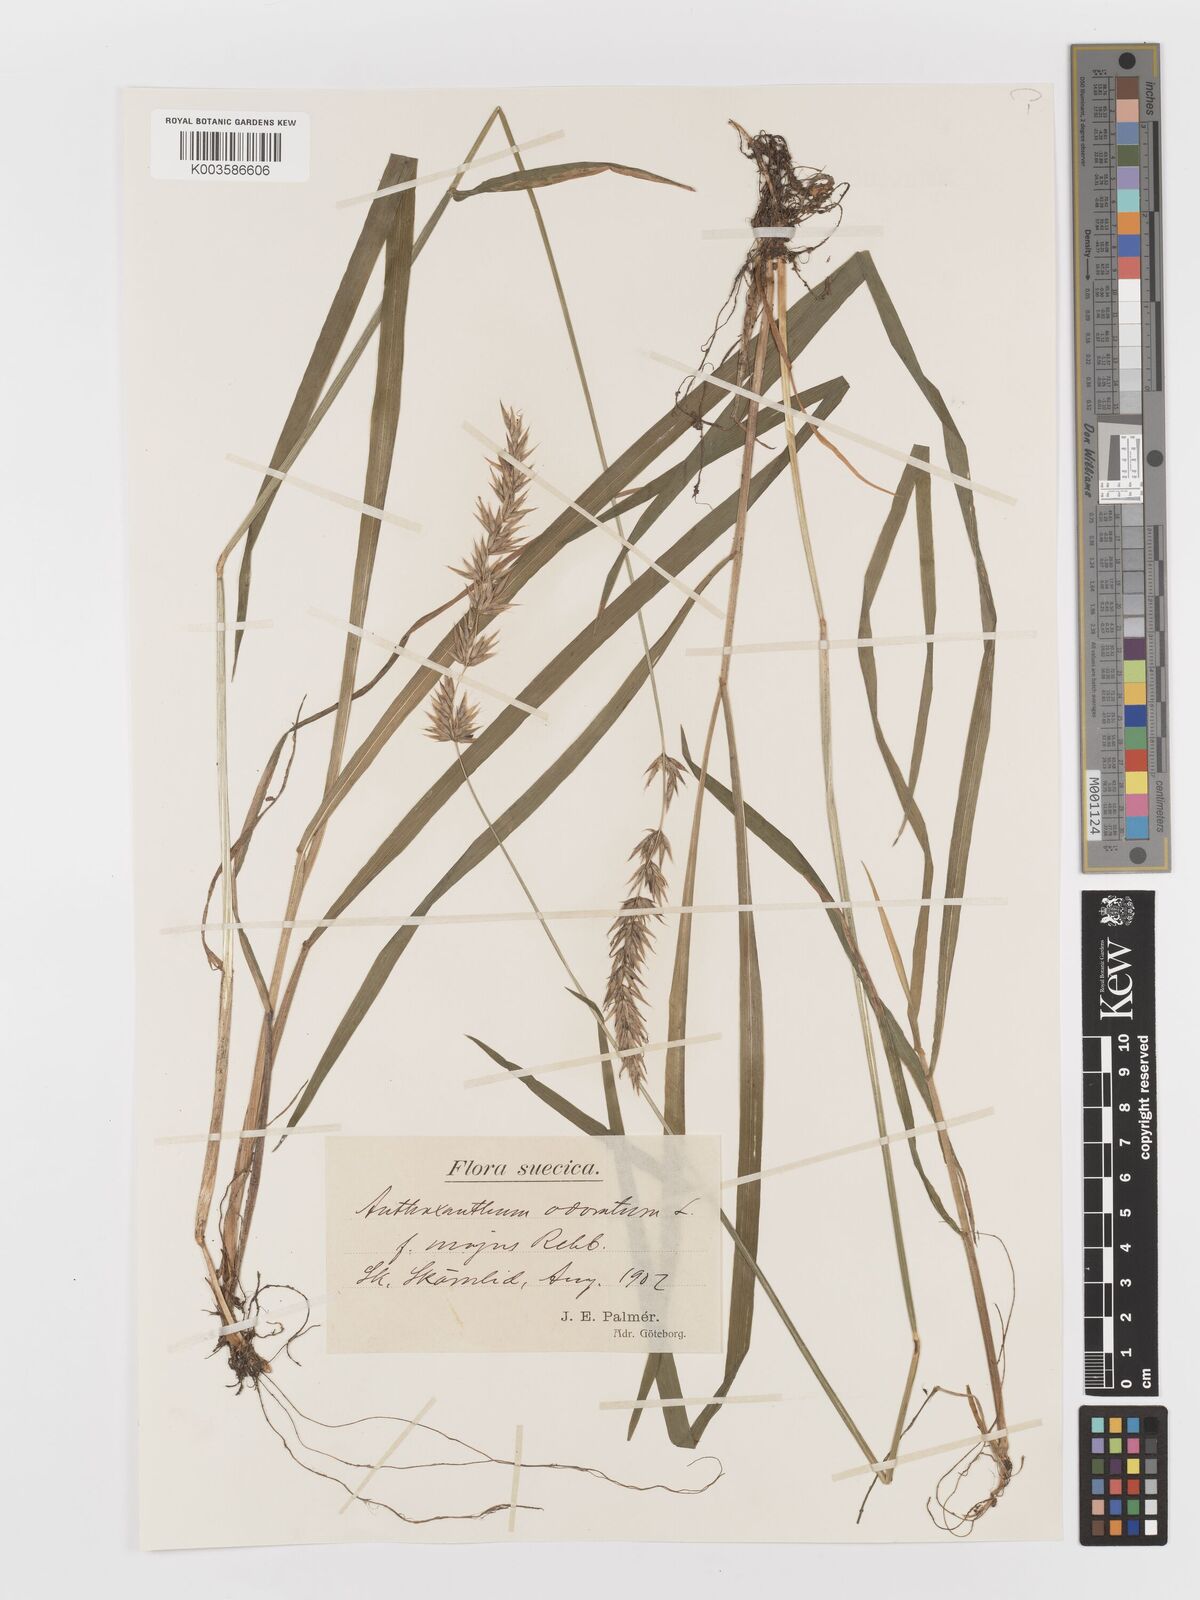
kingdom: Plantae
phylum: Tracheophyta
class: Liliopsida
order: Poales
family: Poaceae
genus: Anthoxanthum
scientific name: Anthoxanthum odoratum
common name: Sweet vernalgrass
